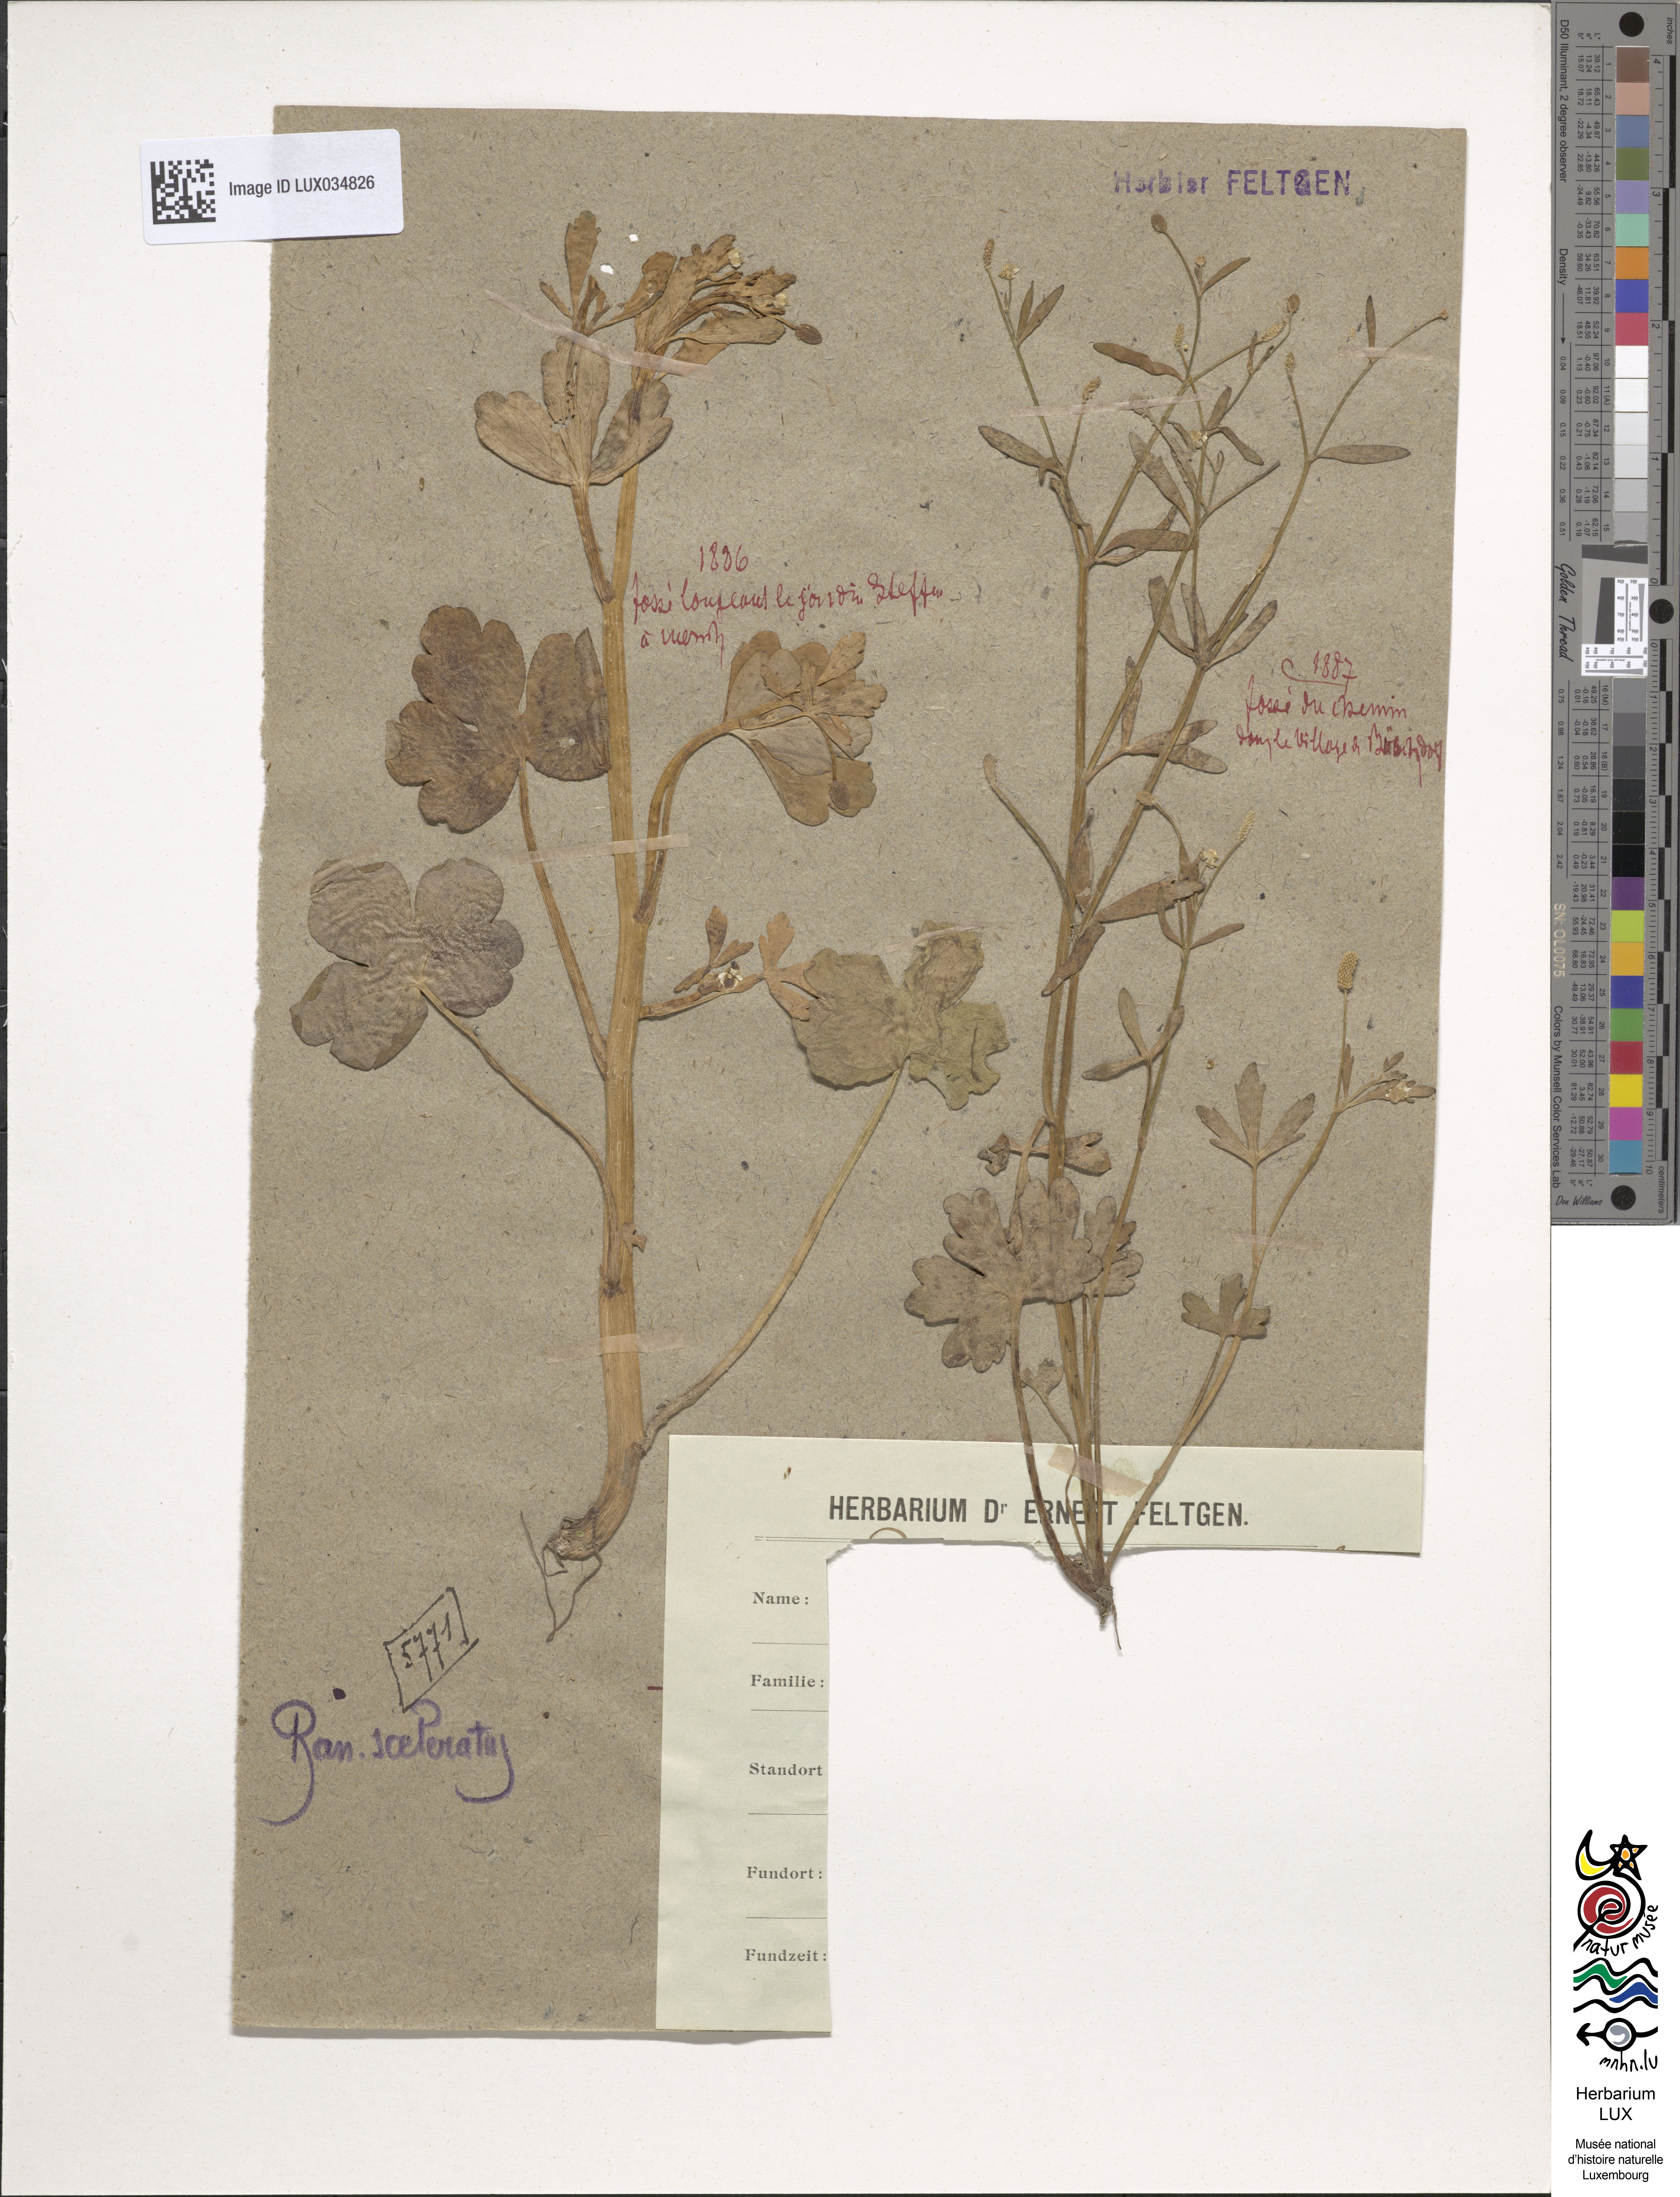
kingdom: Plantae
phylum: Tracheophyta
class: Magnoliopsida
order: Ranunculales
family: Ranunculaceae
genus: Ranunculus
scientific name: Ranunculus sceleratus
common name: Celery-leaved buttercup
